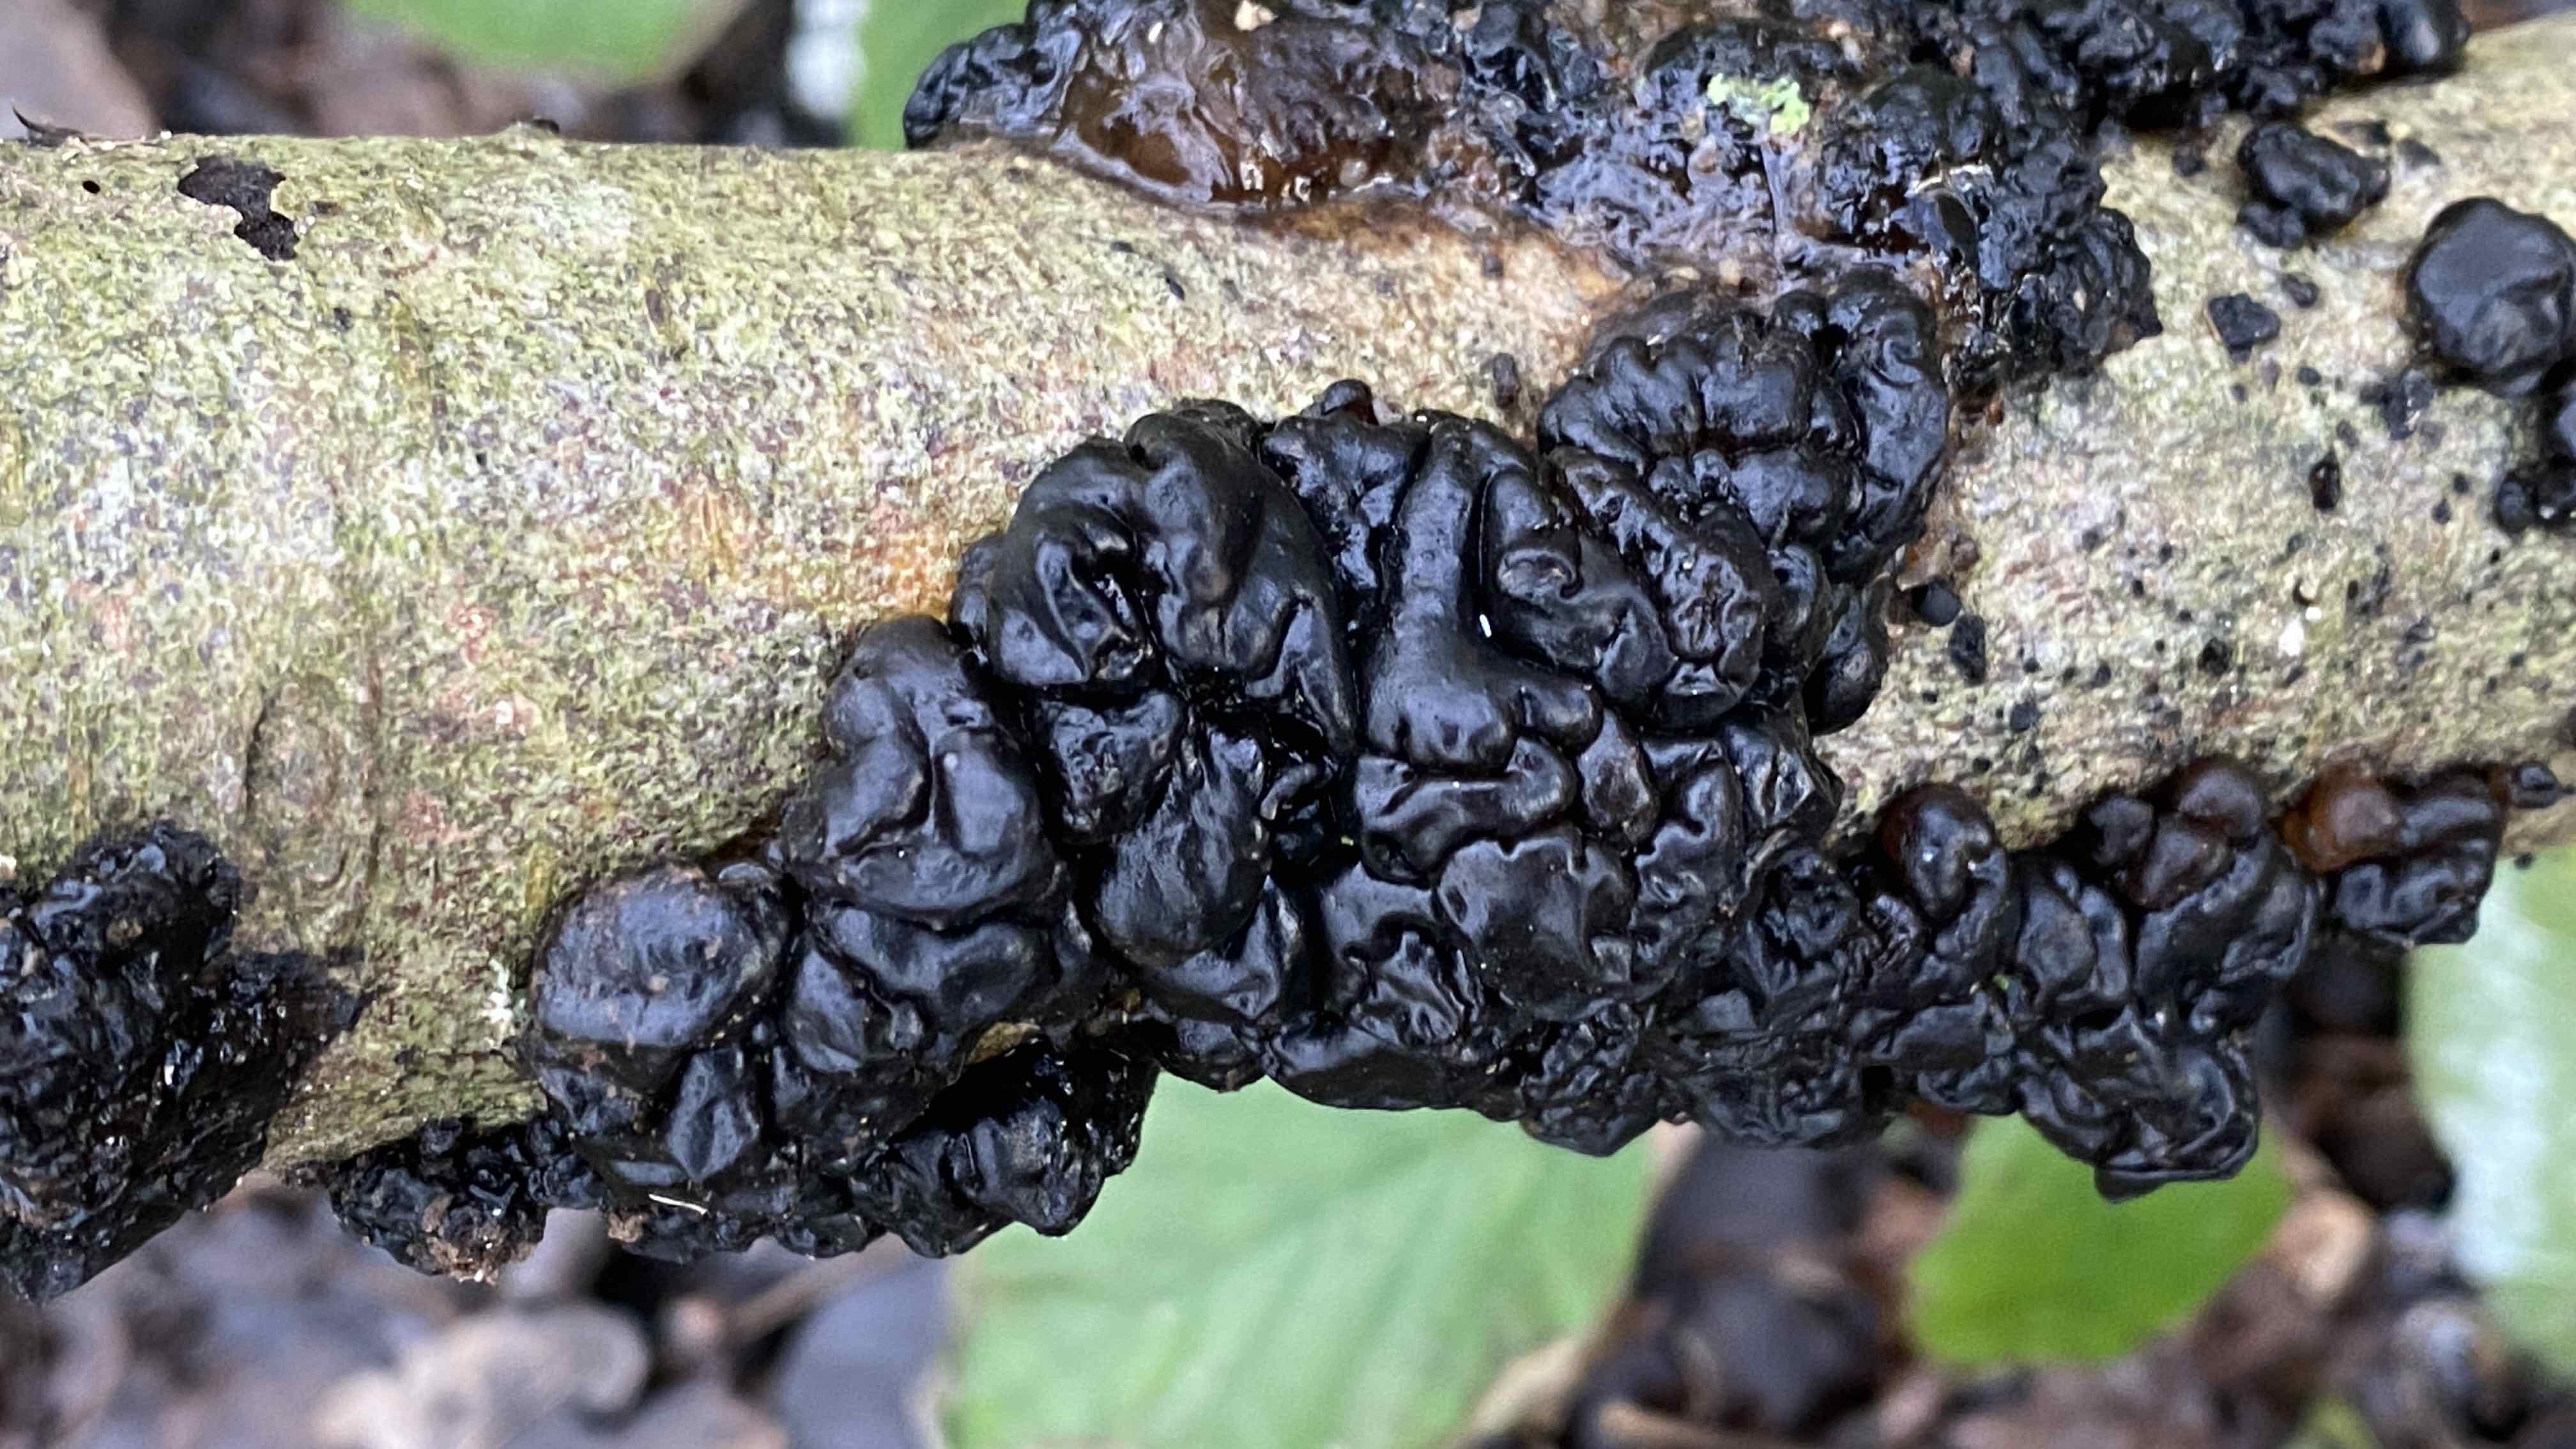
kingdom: Fungi
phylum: Basidiomycota
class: Agaricomycetes
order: Auriculariales
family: Auriculariaceae
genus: Exidia
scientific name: Exidia nigricans
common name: almindelig bævretop
